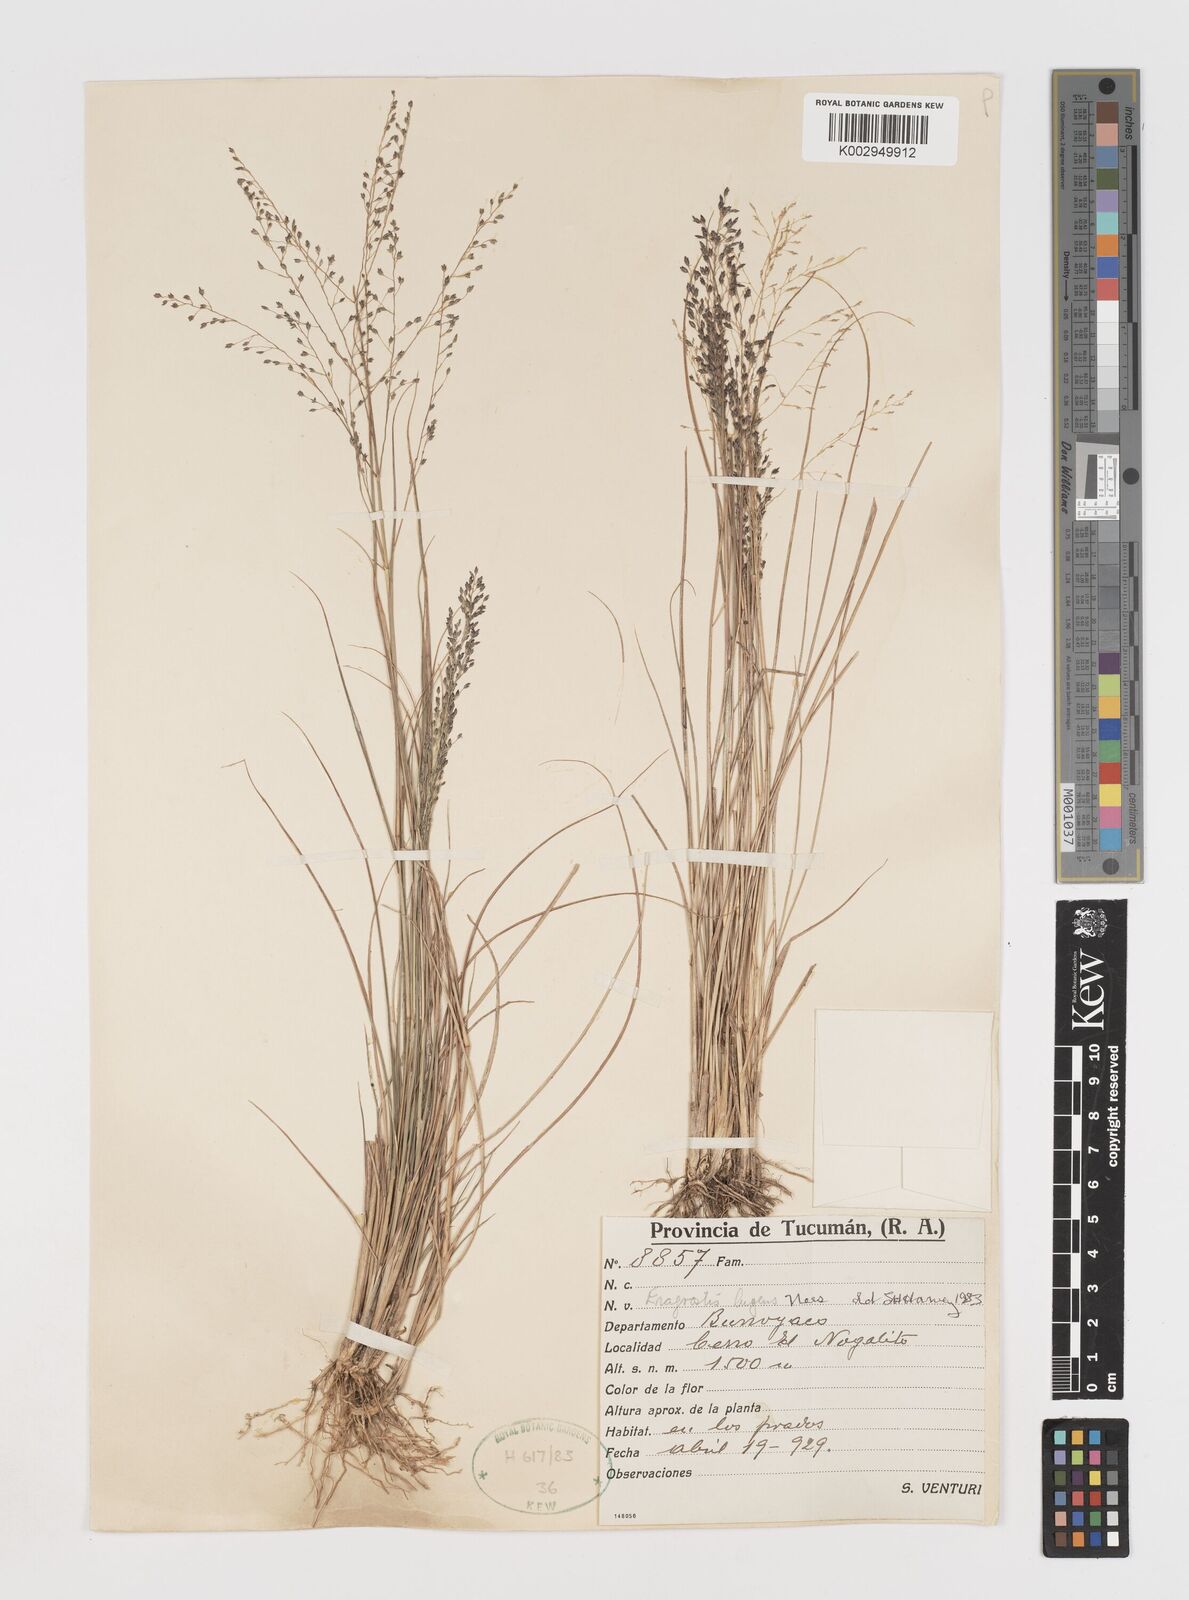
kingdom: Plantae
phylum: Tracheophyta
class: Liliopsida
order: Poales
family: Poaceae
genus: Eragrostis
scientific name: Eragrostis lugens
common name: Mourning love grass
